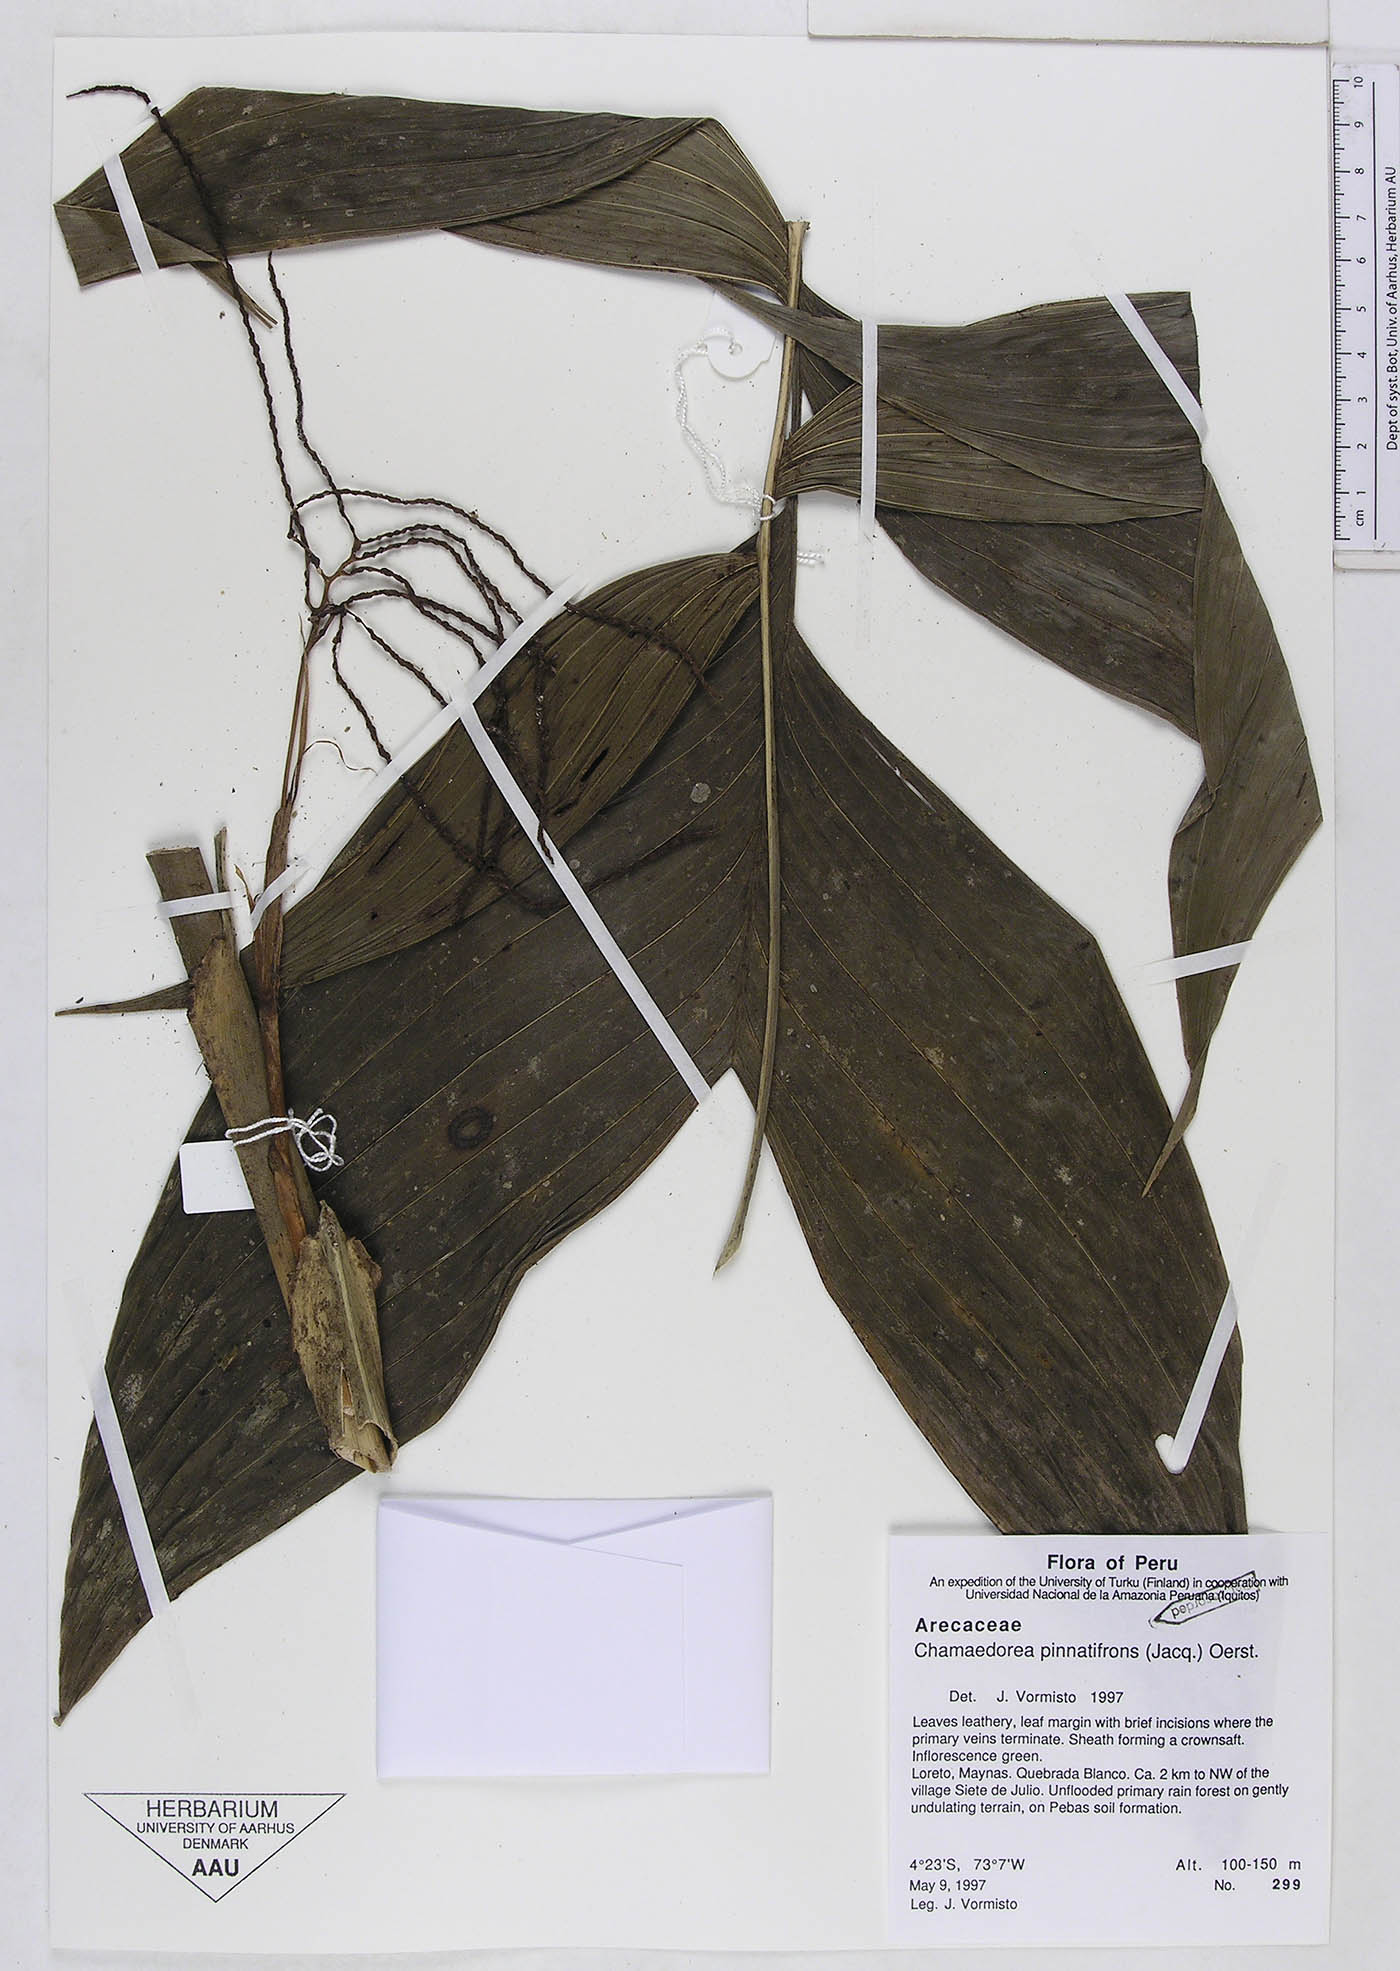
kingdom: Plantae
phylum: Tracheophyta
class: Liliopsida
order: Arecales
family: Arecaceae
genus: Chamaedorea
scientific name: Chamaedorea pinnatifrons
